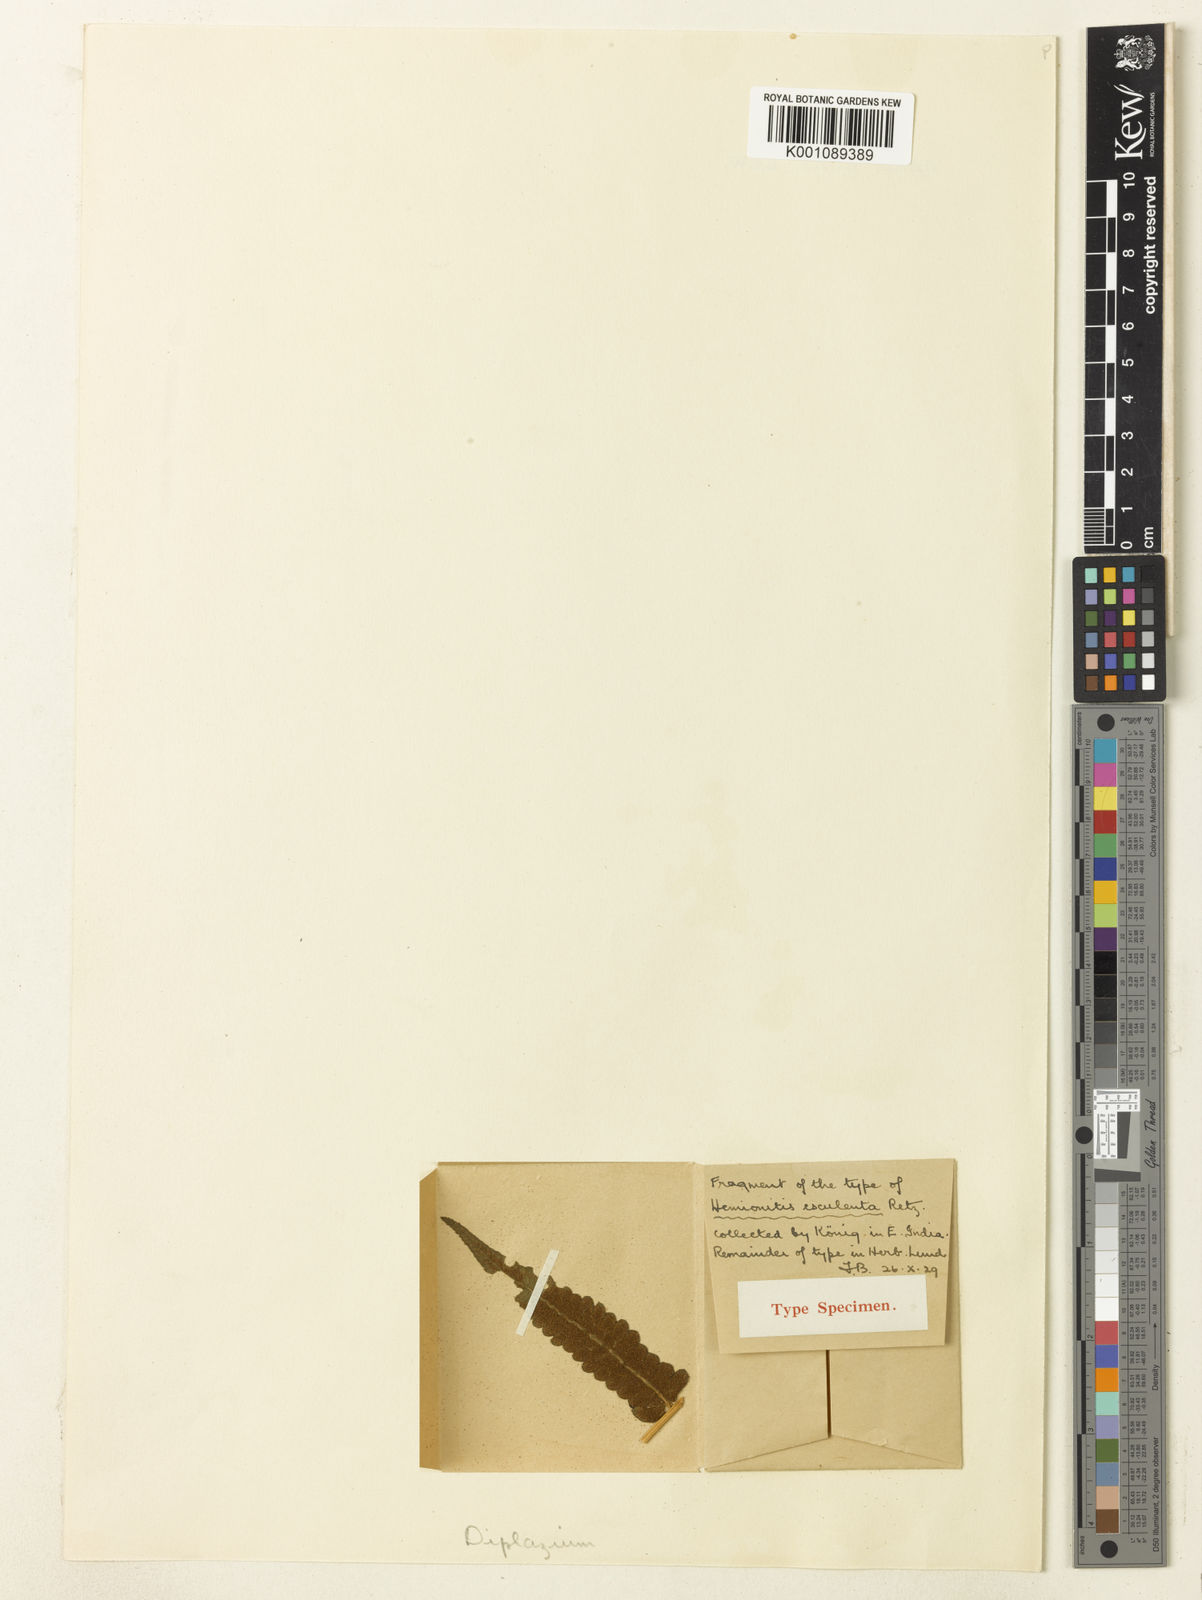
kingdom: Plantae
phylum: Tracheophyta
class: Polypodiopsida
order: Polypodiales
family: Athyriaceae
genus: Diplazium
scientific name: Diplazium esculentum
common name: Vegetable fern
